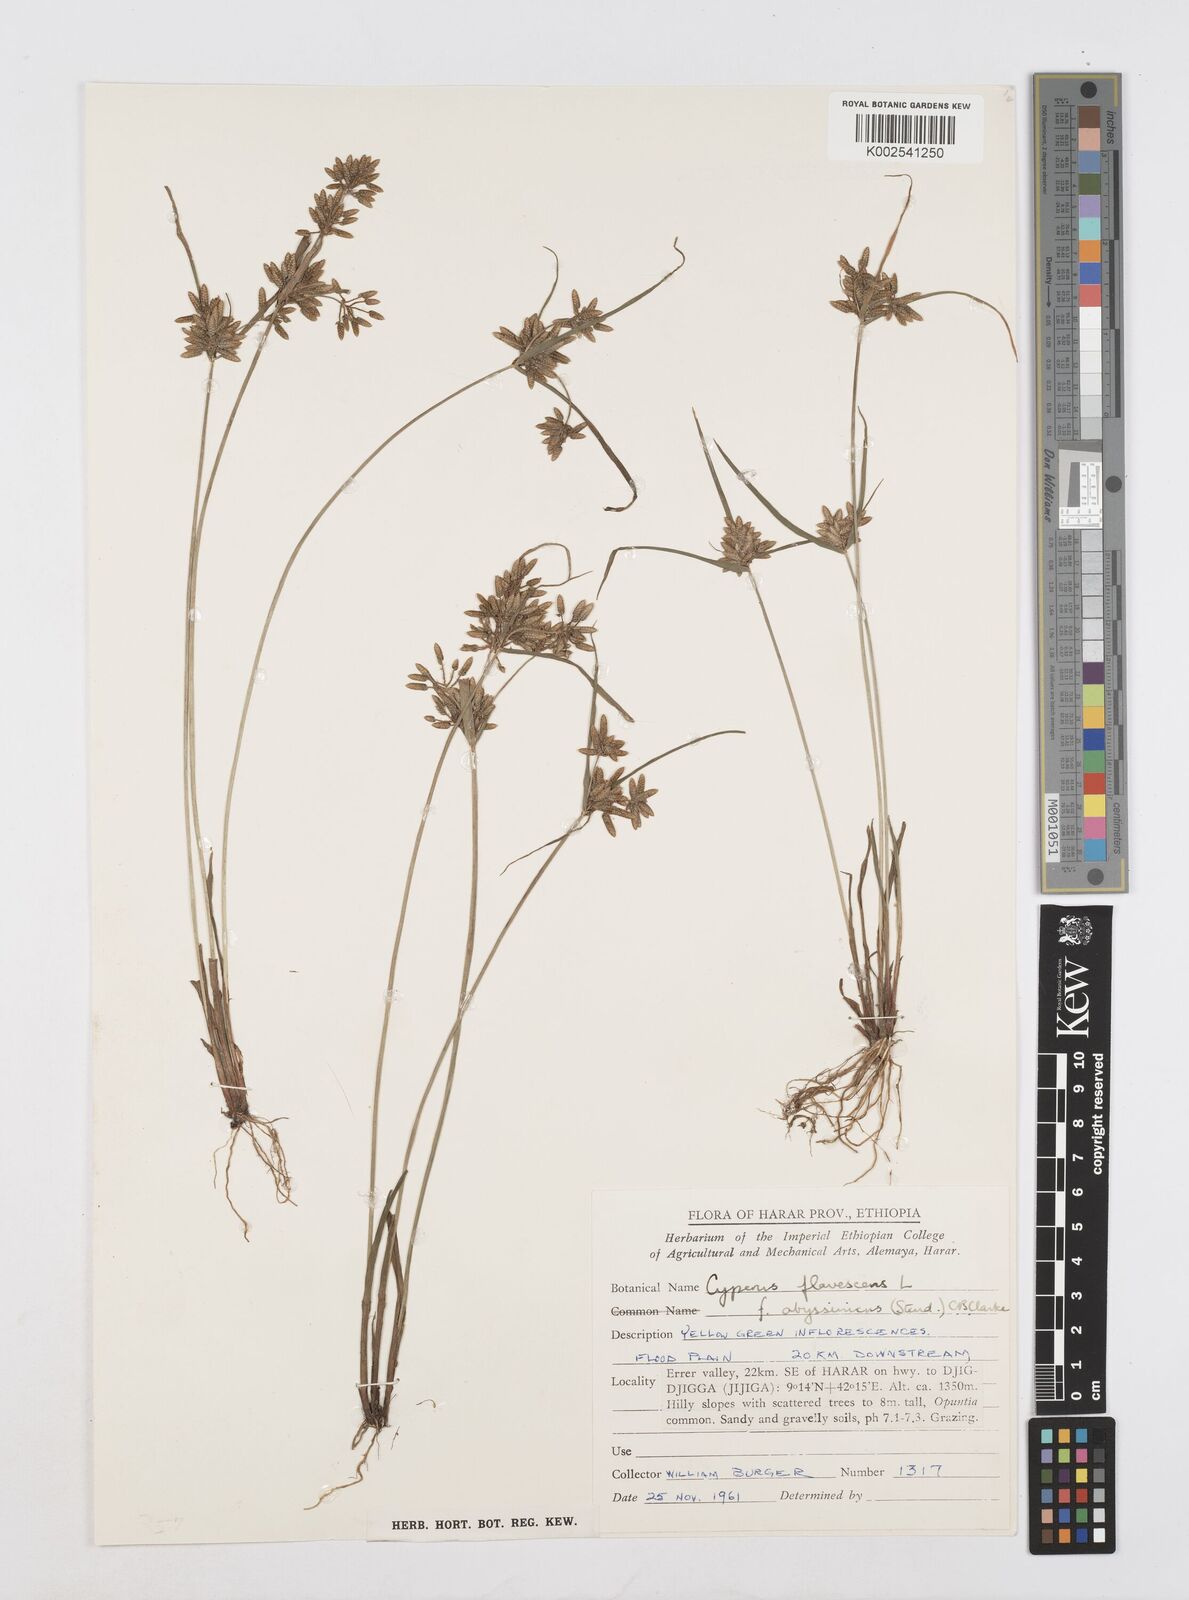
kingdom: Plantae
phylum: Tracheophyta
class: Liliopsida
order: Poales
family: Cyperaceae
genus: Cyperus
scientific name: Cyperus flavescens
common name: Yellow galingale
